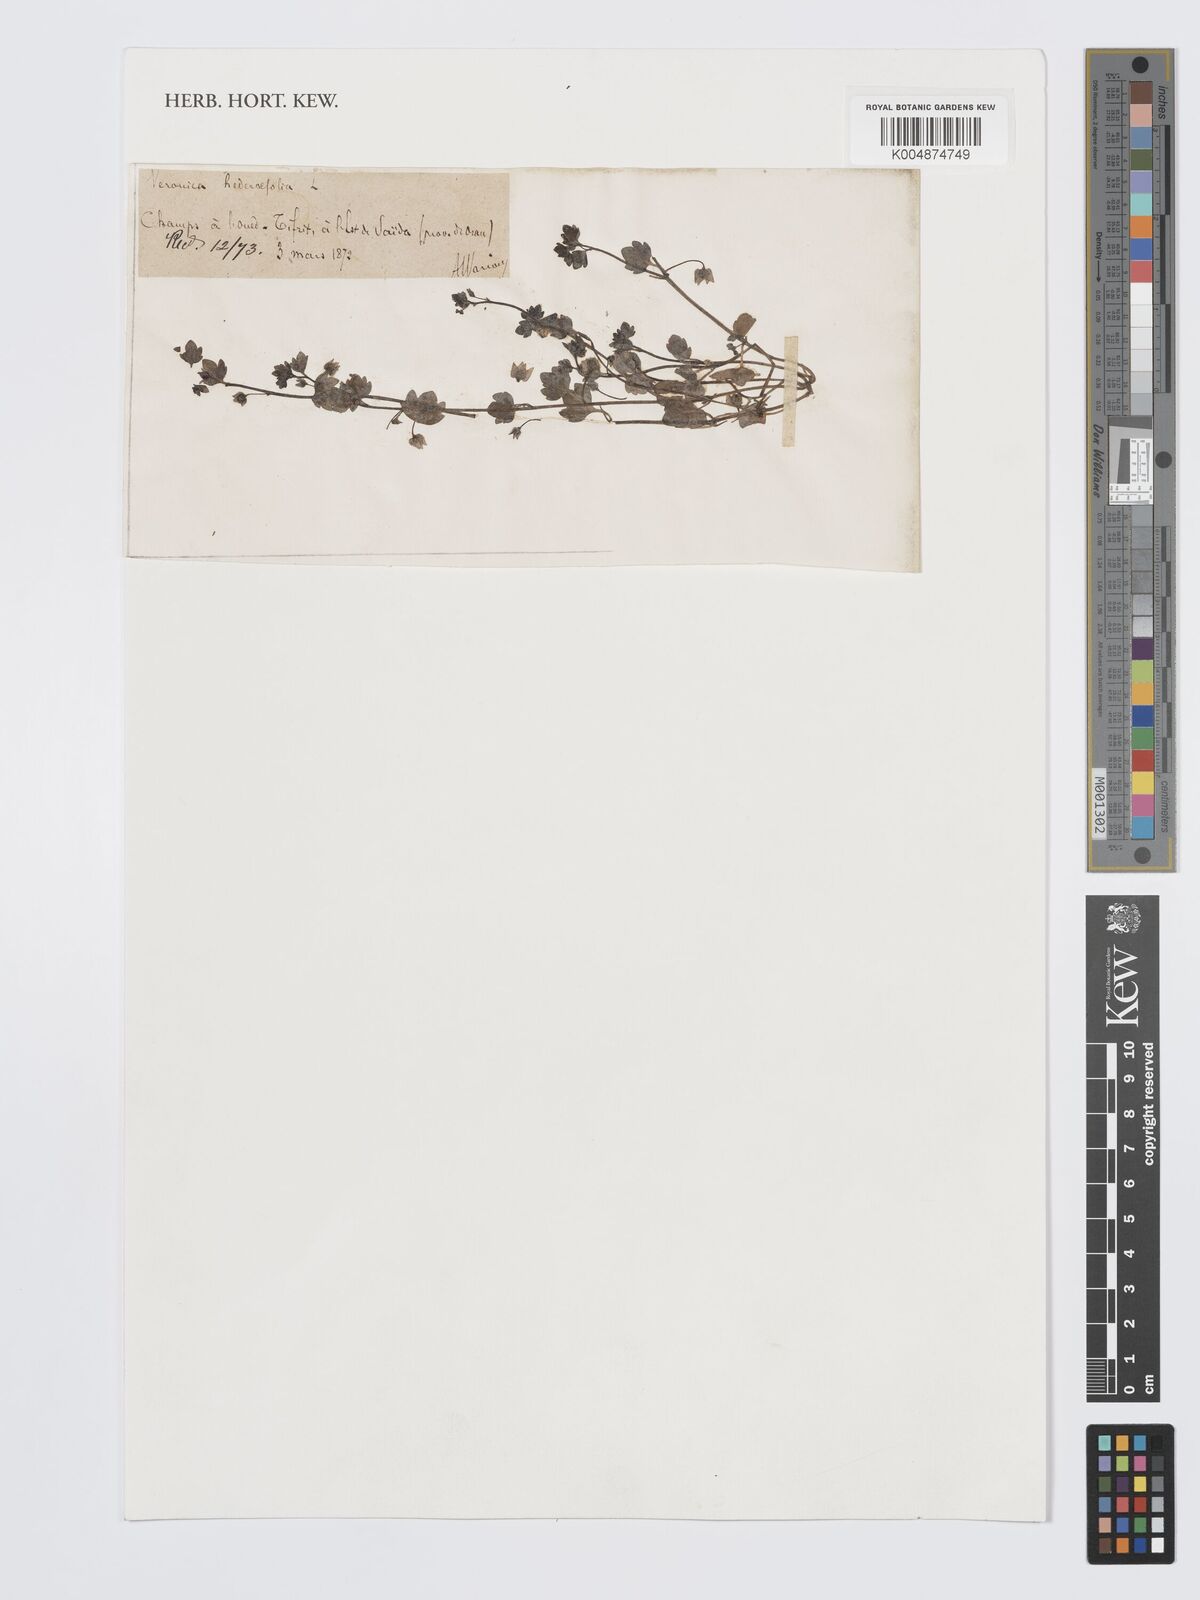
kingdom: Plantae
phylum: Tracheophyta
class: Magnoliopsida
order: Lamiales
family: Plantaginaceae
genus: Veronica
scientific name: Veronica hederifolia
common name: Ivy-leaved speedwell
